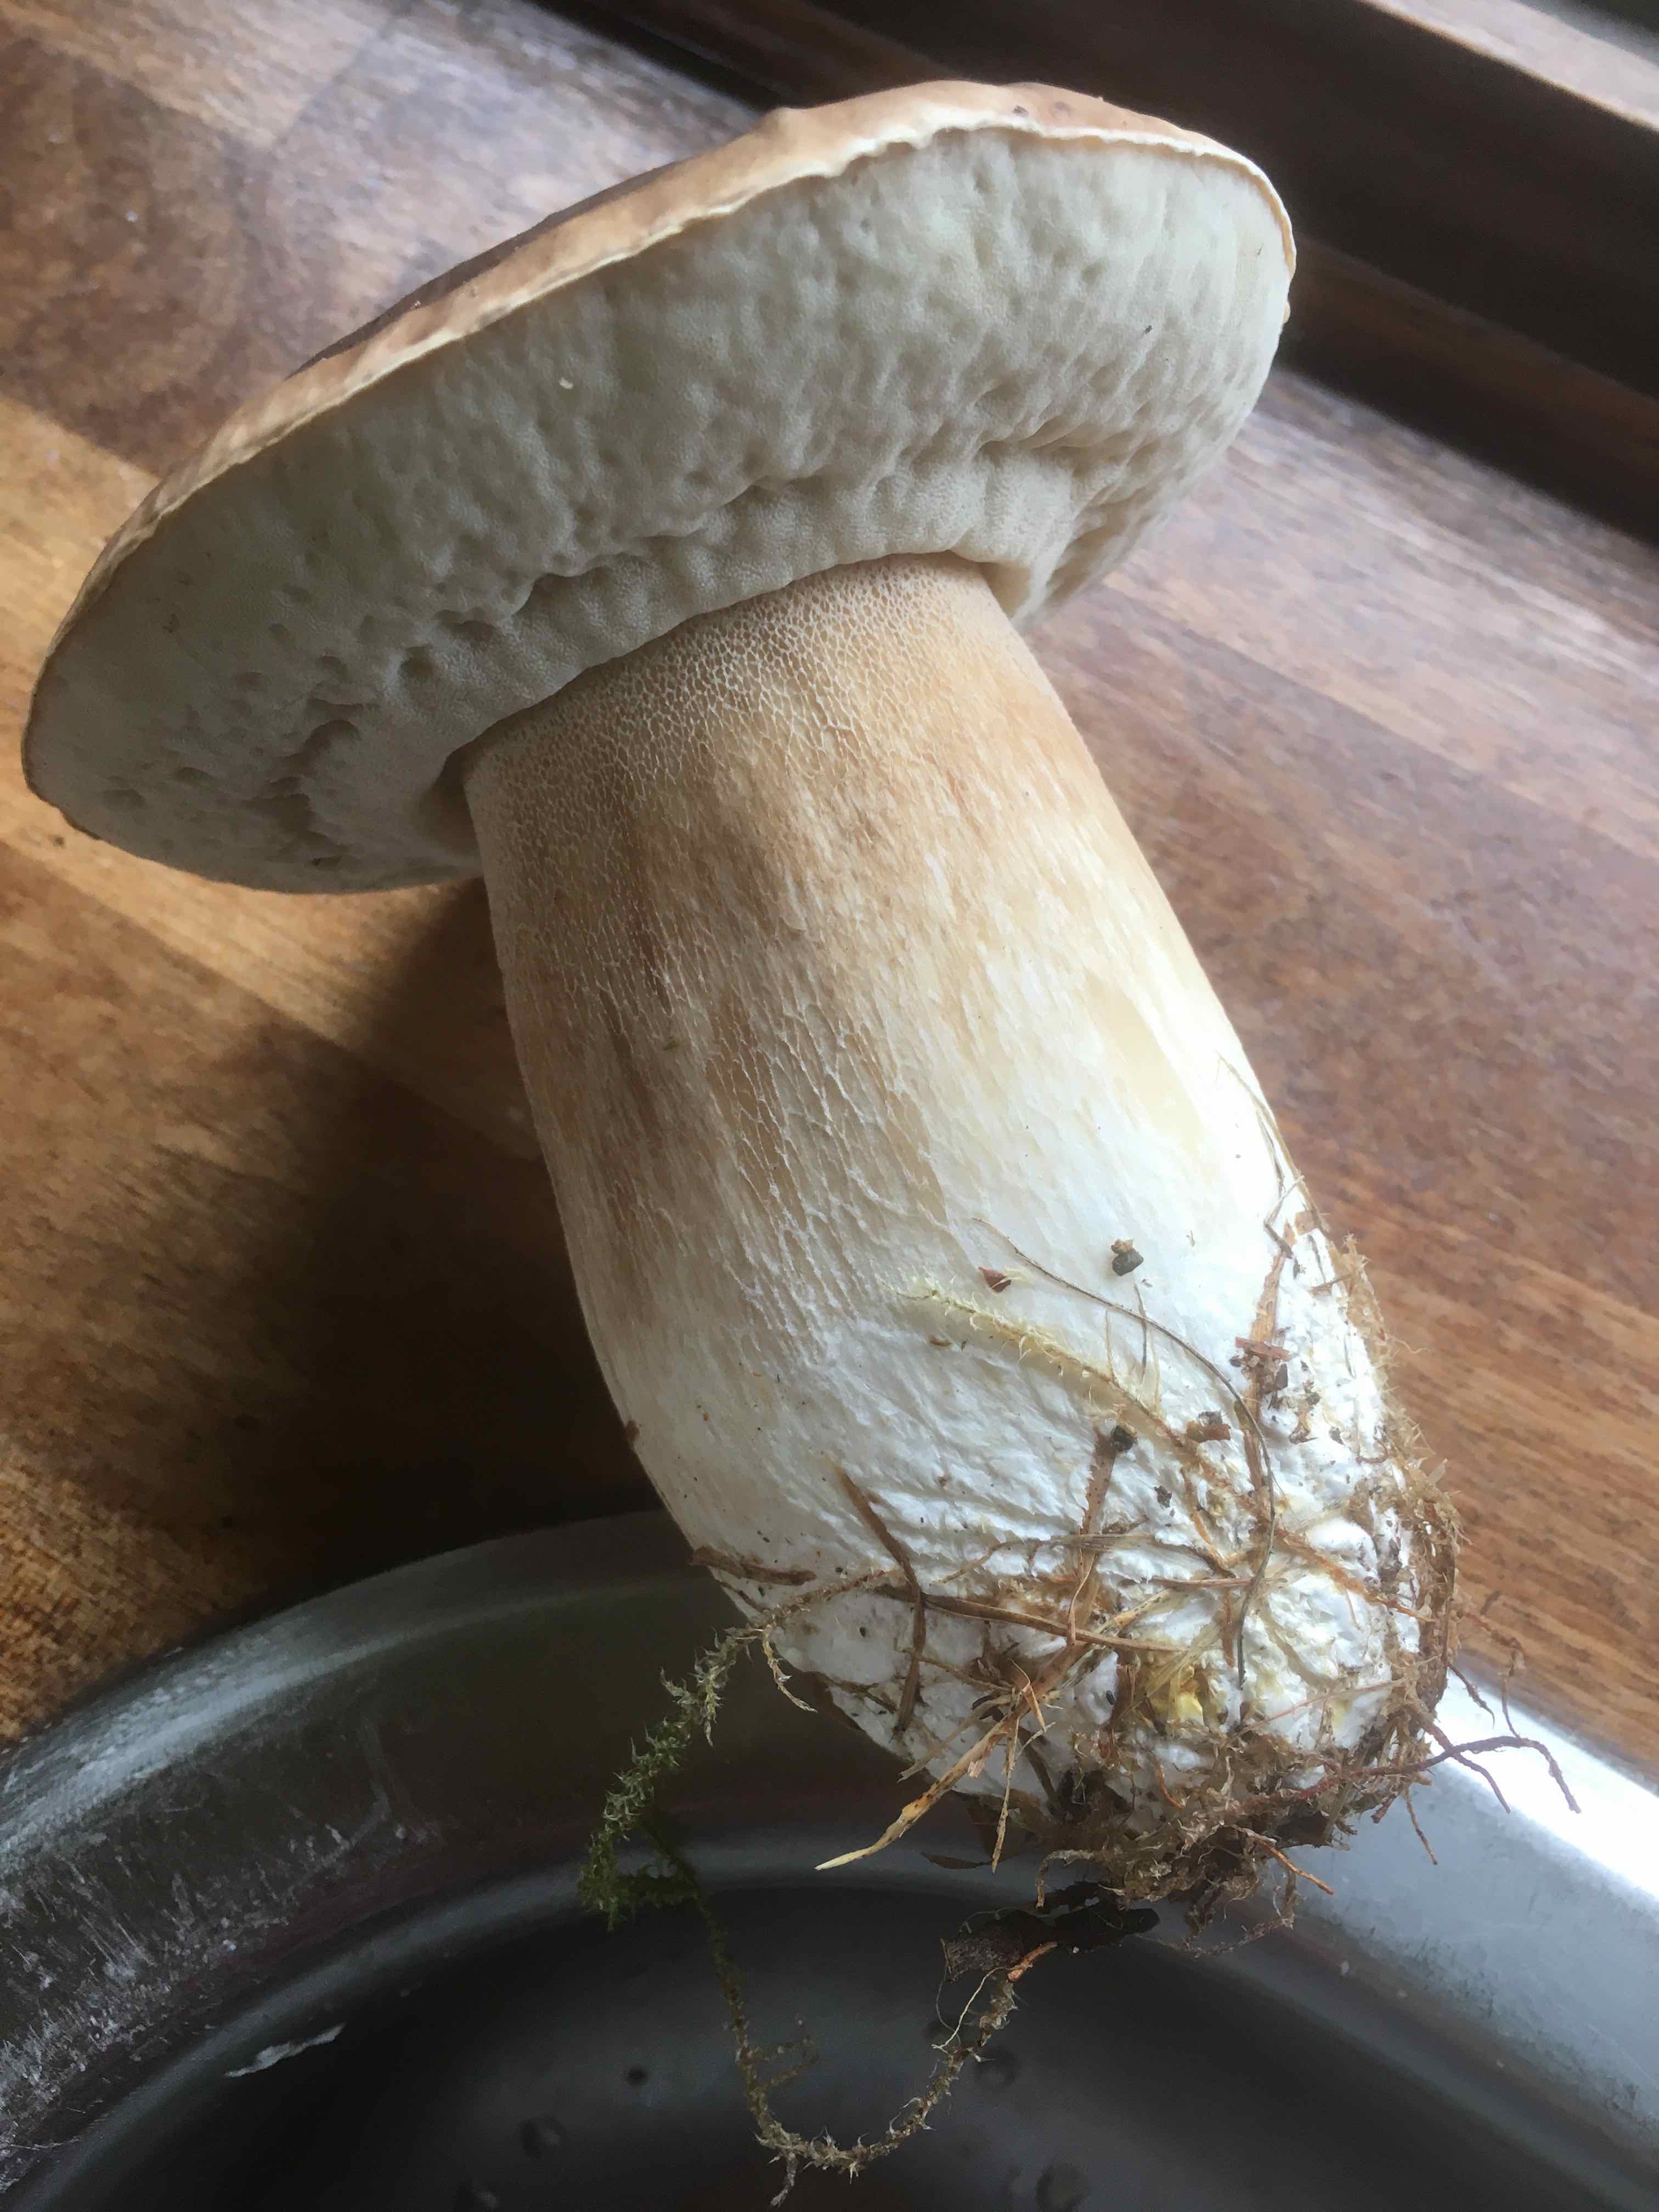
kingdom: Fungi
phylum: Basidiomycota
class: Agaricomycetes
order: Boletales
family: Boletaceae
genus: Boletus
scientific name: Boletus edulis
